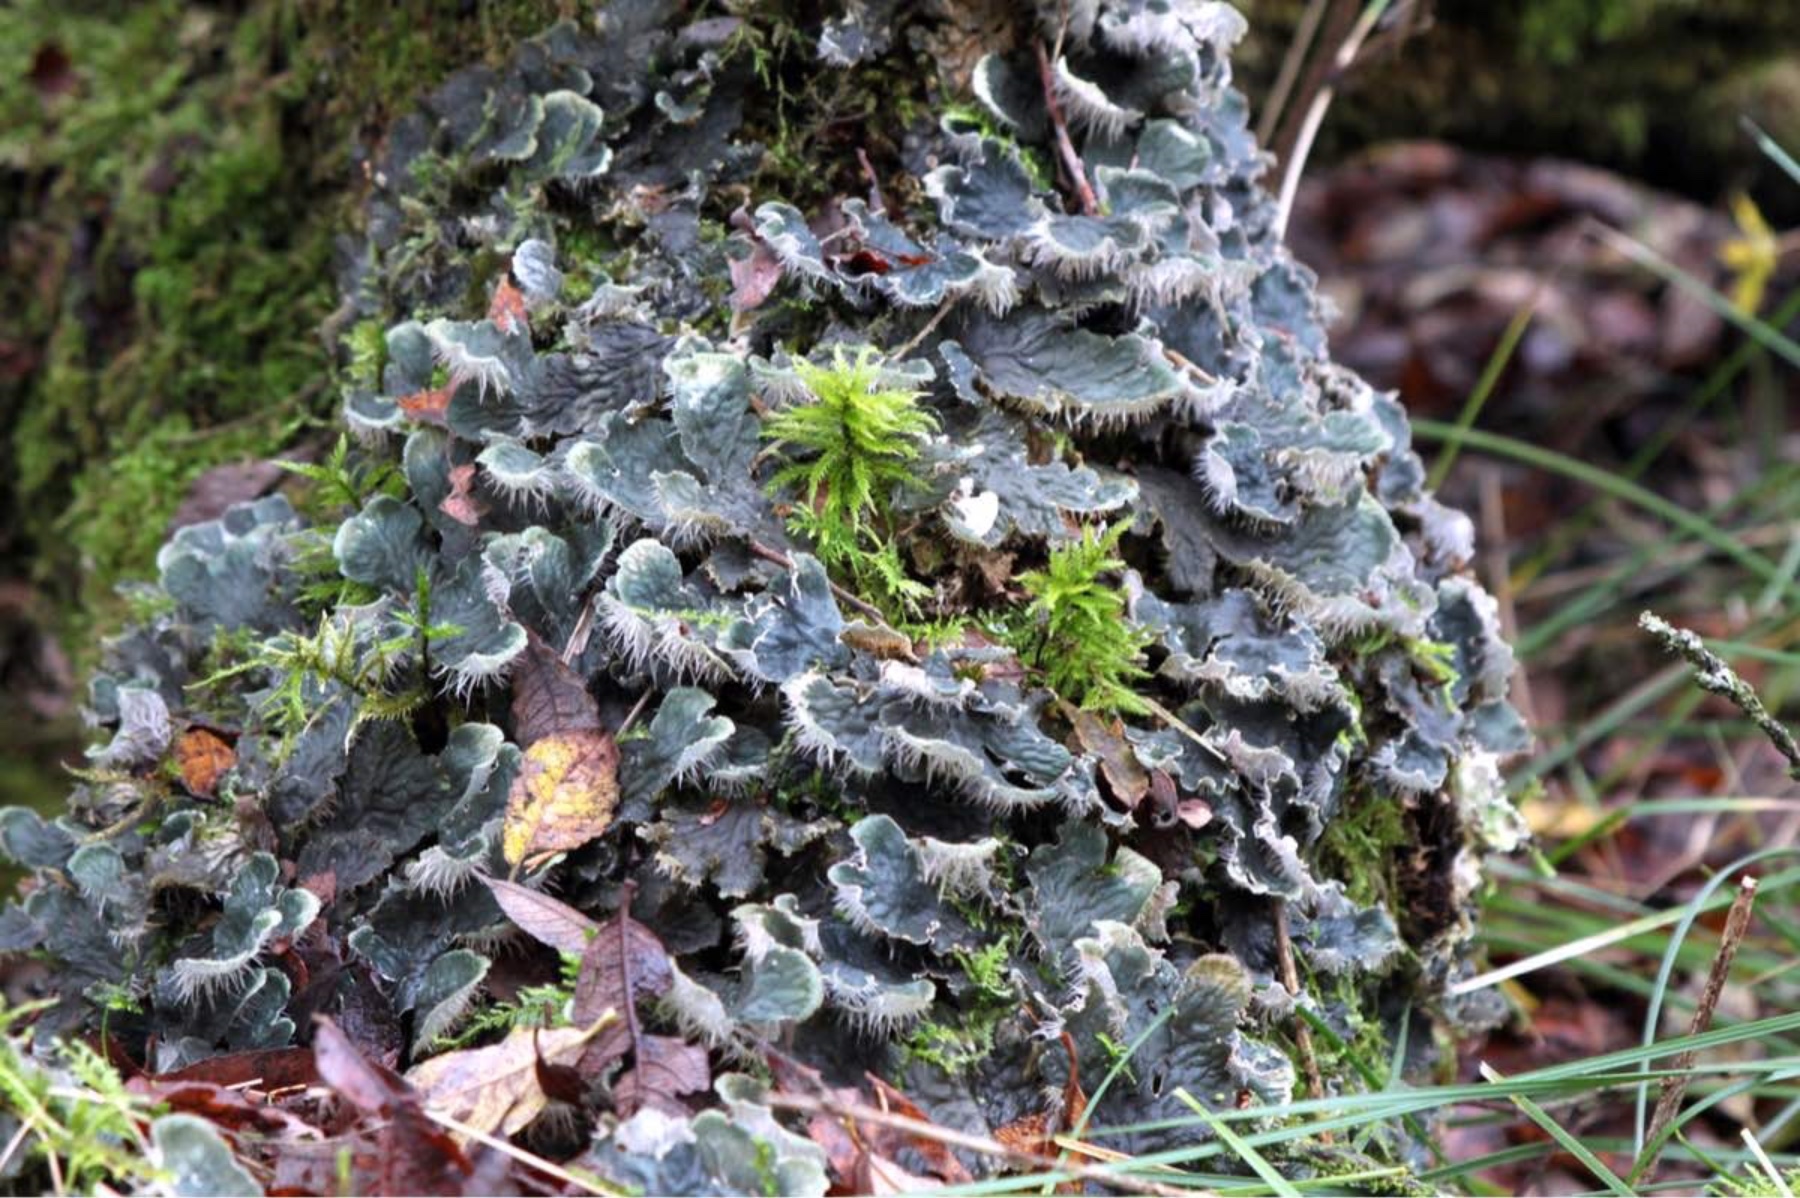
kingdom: Fungi
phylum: Ascomycota
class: Lecanoromycetes
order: Peltigerales
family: Peltigeraceae
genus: Peltigera
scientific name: Peltigera membranacea
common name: tynd skjoldlav
